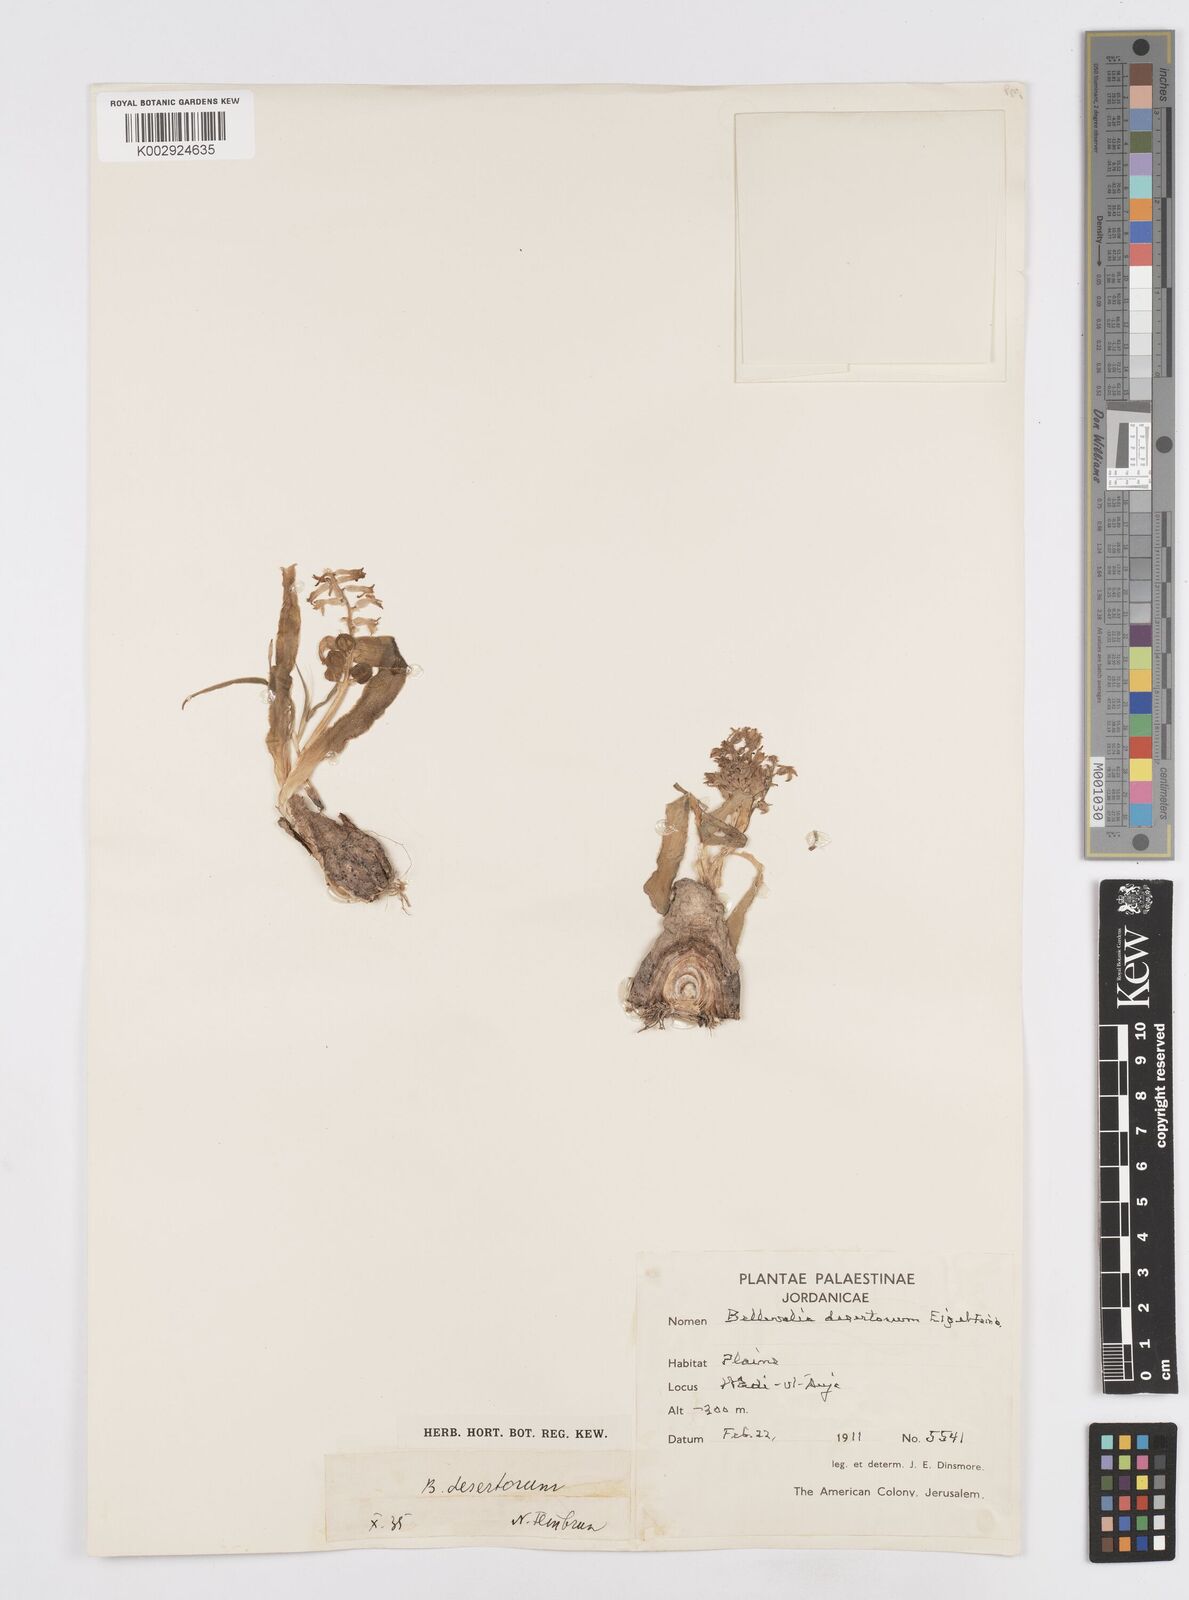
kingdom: Plantae
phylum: Tracheophyta
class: Liliopsida
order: Asparagales
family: Asparagaceae
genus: Bellevalia
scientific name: Bellevalia desertorum
